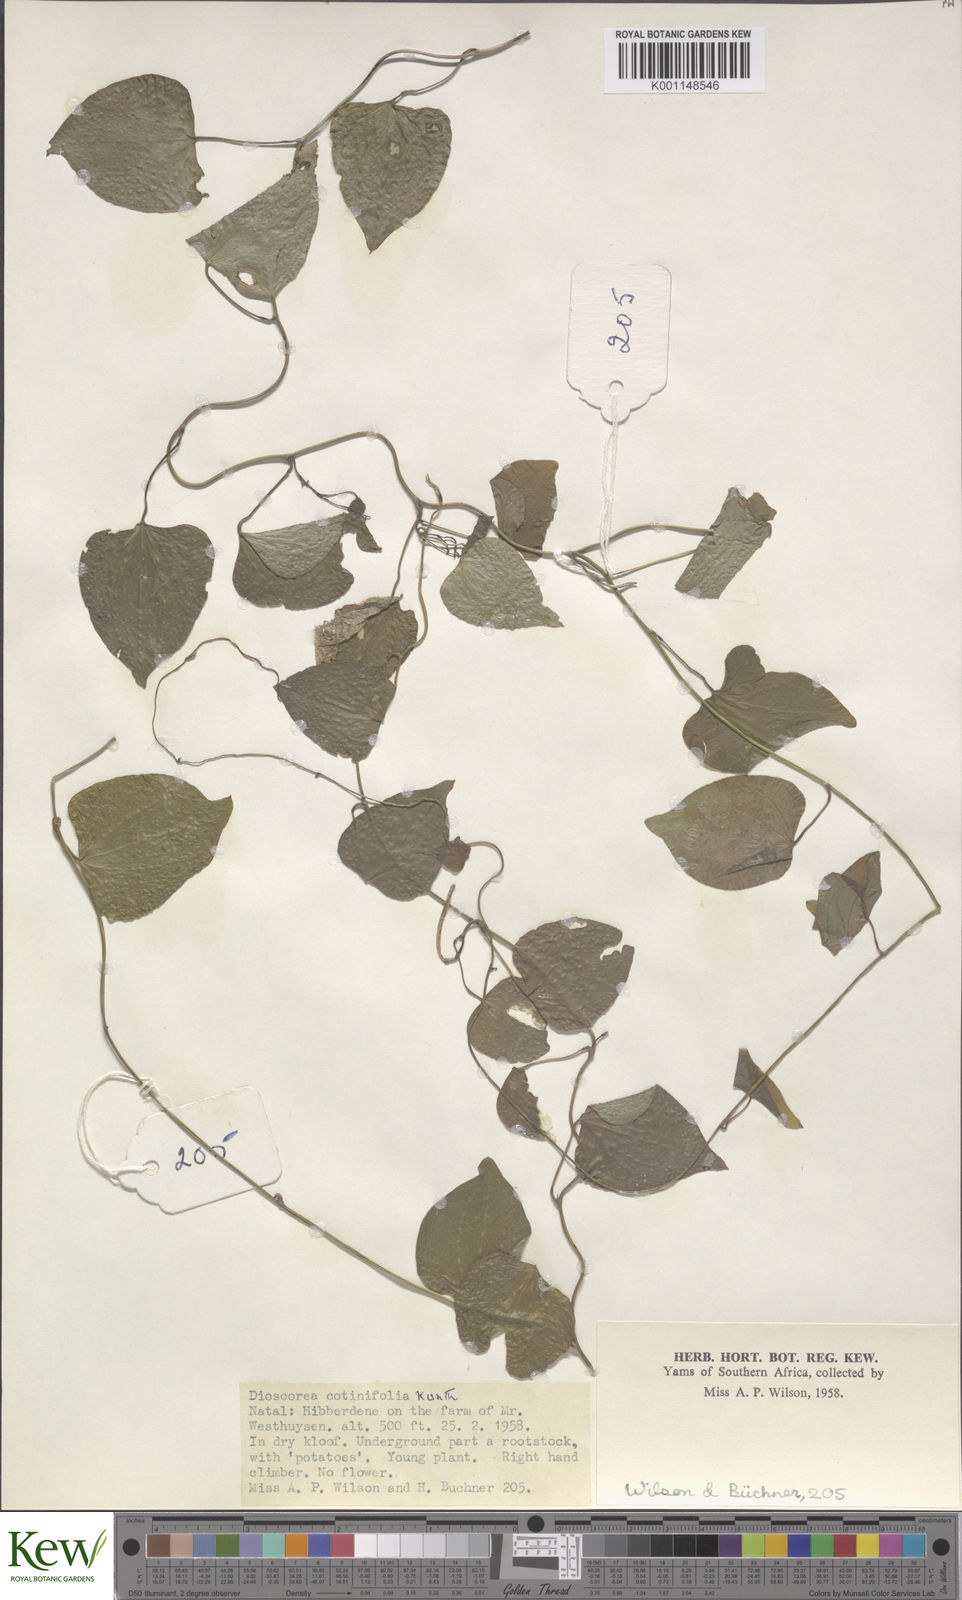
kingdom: Plantae
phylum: Tracheophyta
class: Liliopsida
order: Dioscoreales
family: Dioscoreaceae
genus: Dioscorea
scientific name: Dioscorea cotinifolia
